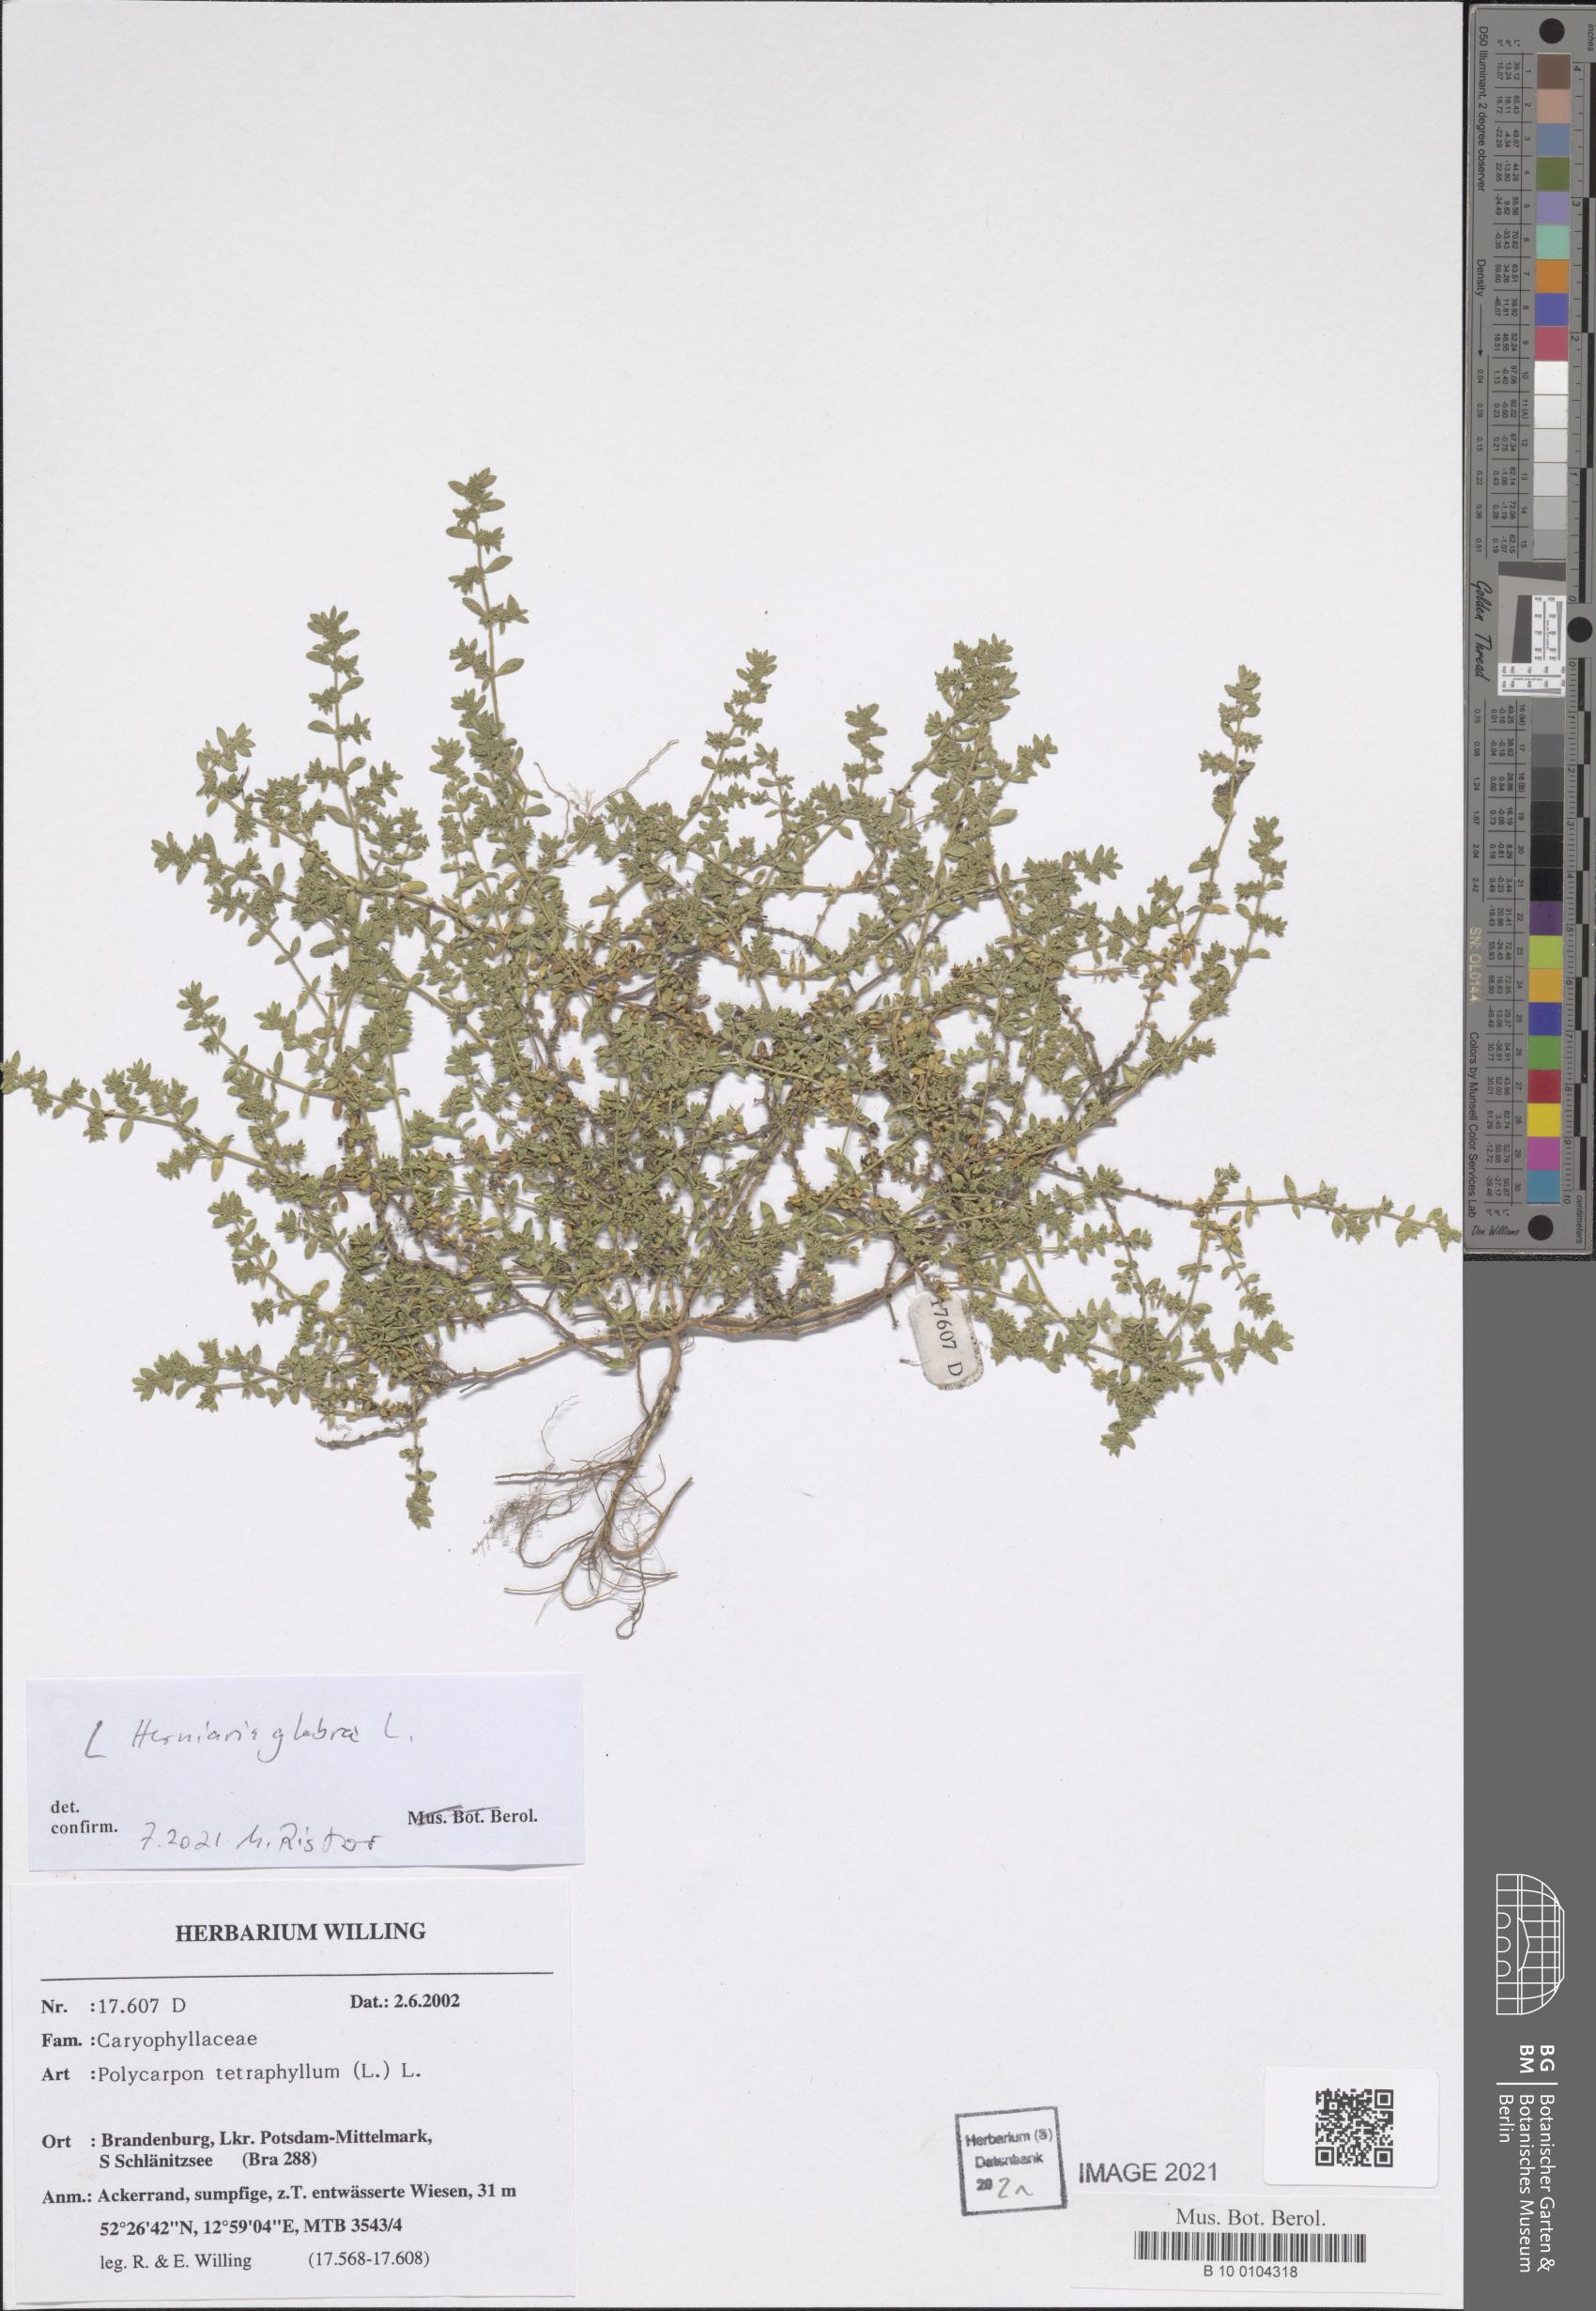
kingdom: Plantae
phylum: Tracheophyta
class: Magnoliopsida
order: Caryophyllales
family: Caryophyllaceae
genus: Herniaria
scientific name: Herniaria glabra
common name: Smooth rupturewort
